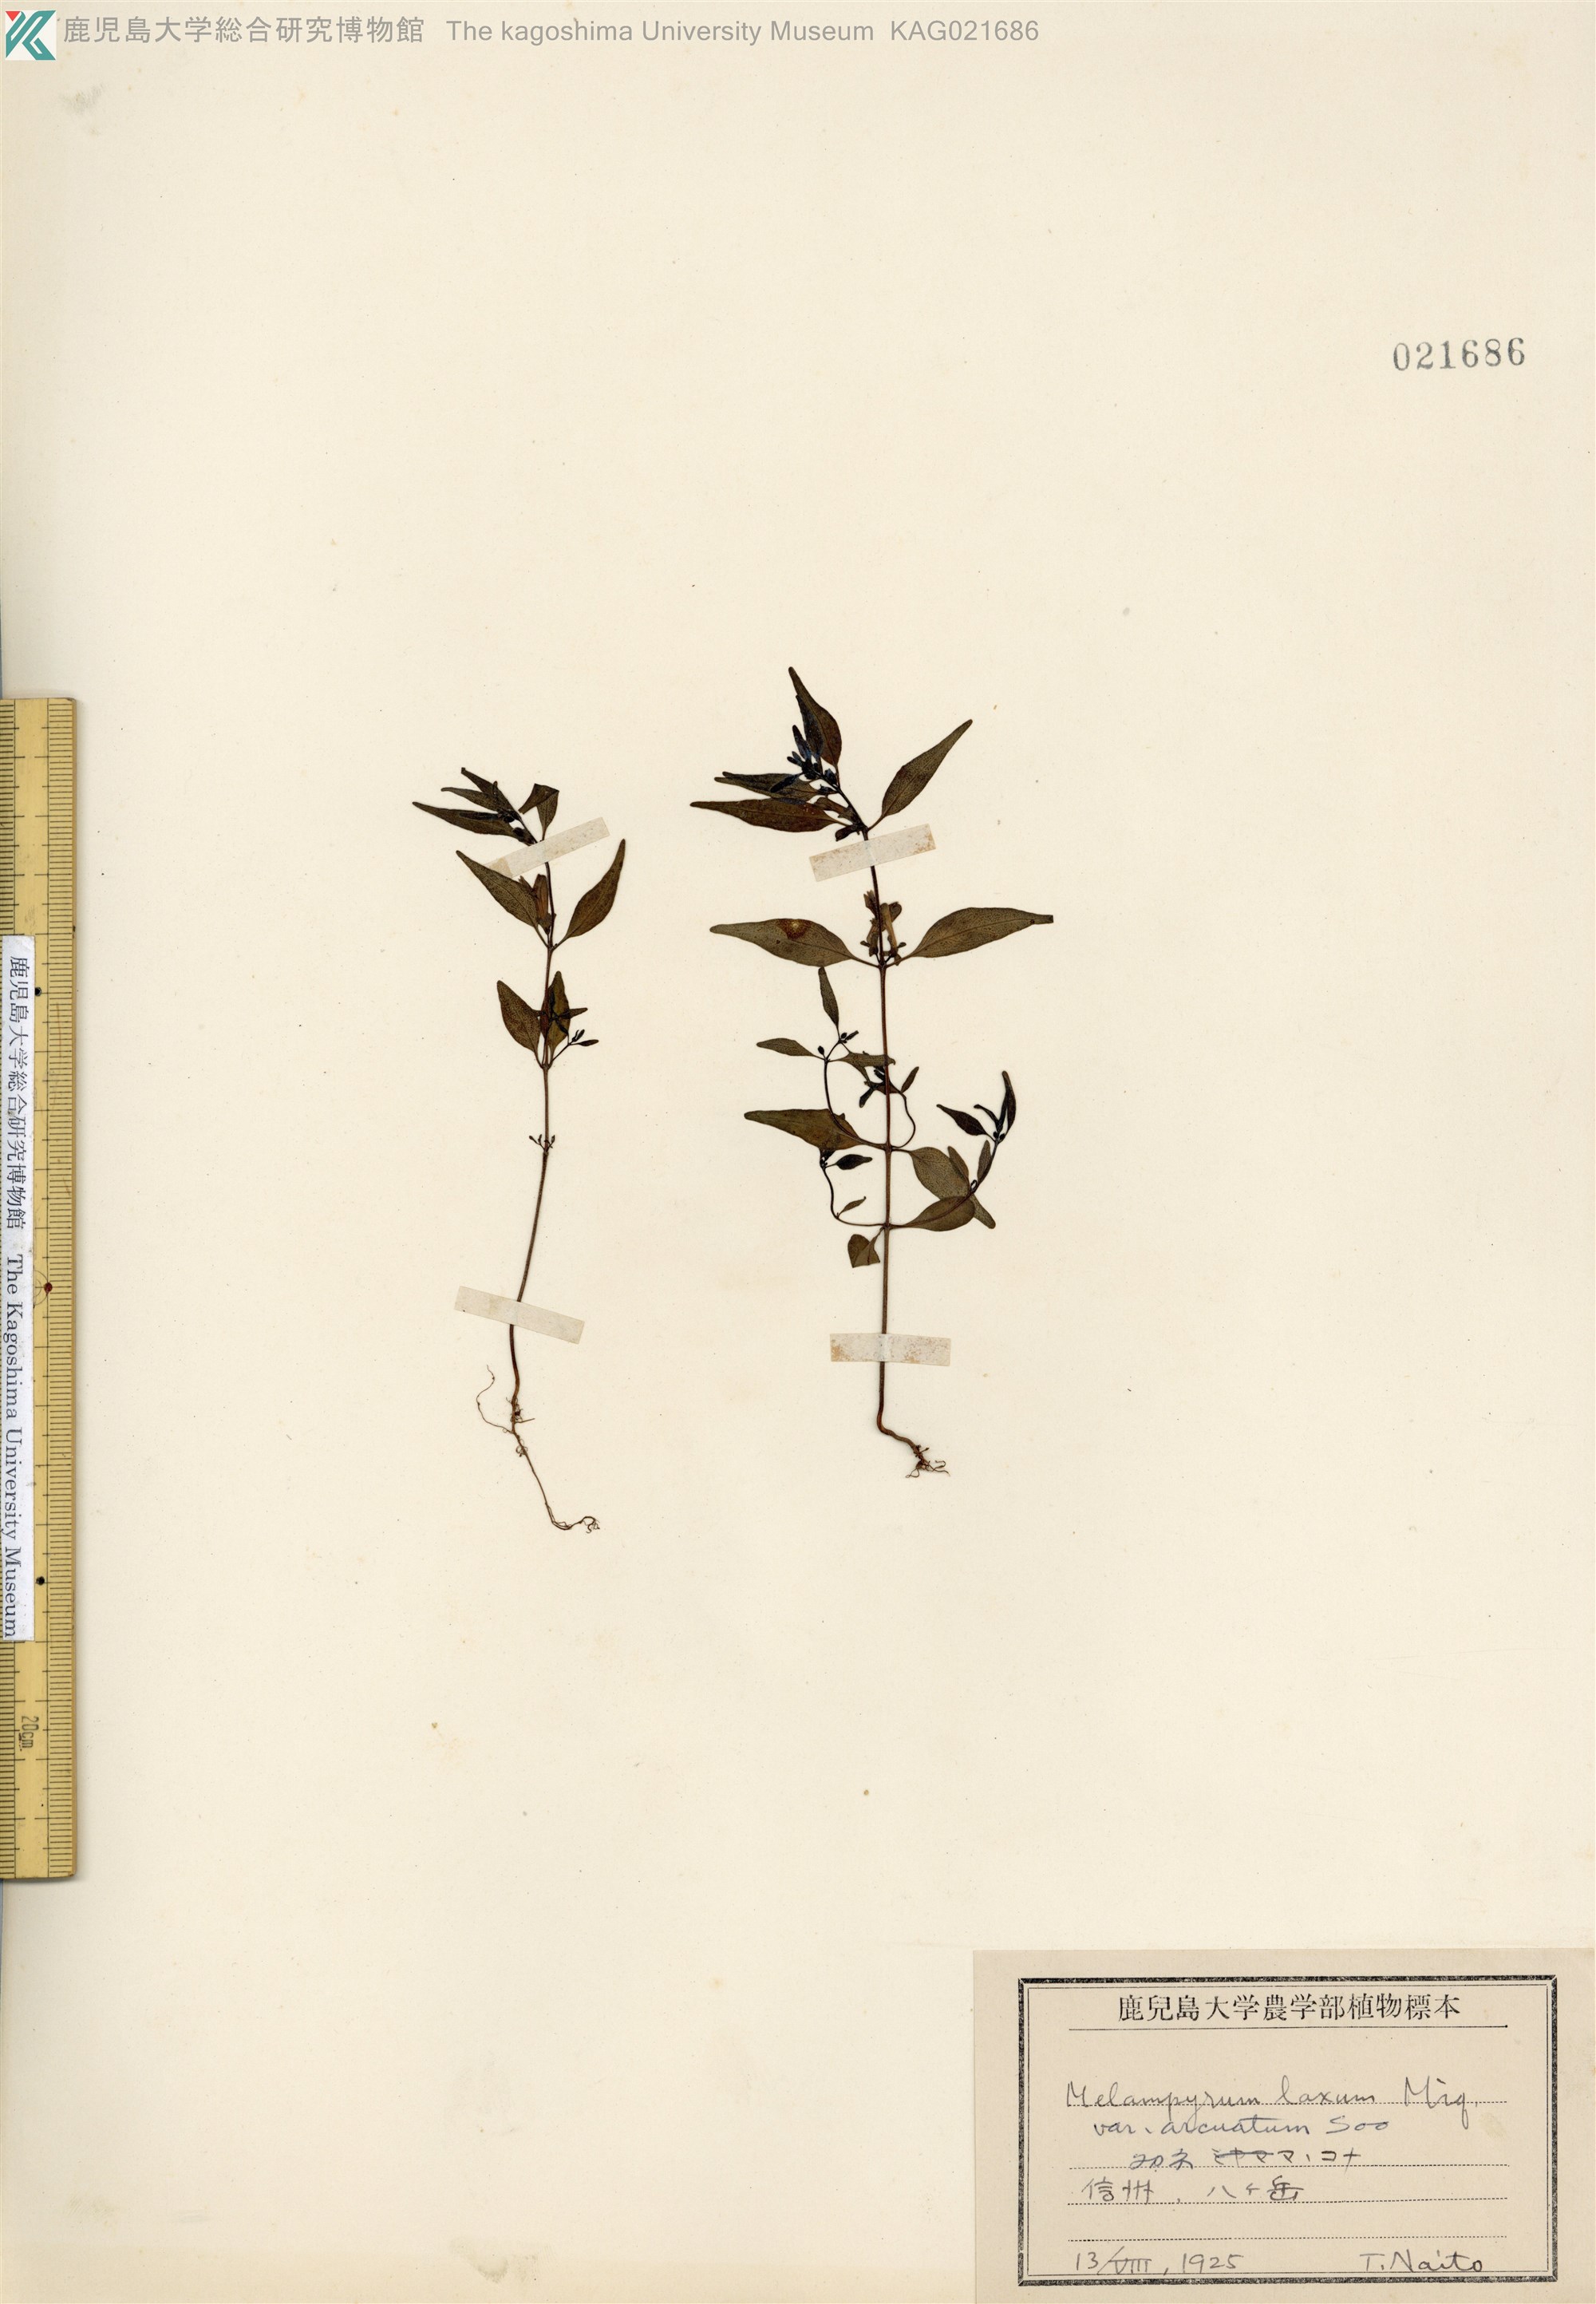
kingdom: Plantae
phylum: Tracheophyta
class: Magnoliopsida
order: Lamiales
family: Orobanchaceae
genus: Melampyrum
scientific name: Melampyrum laxum
